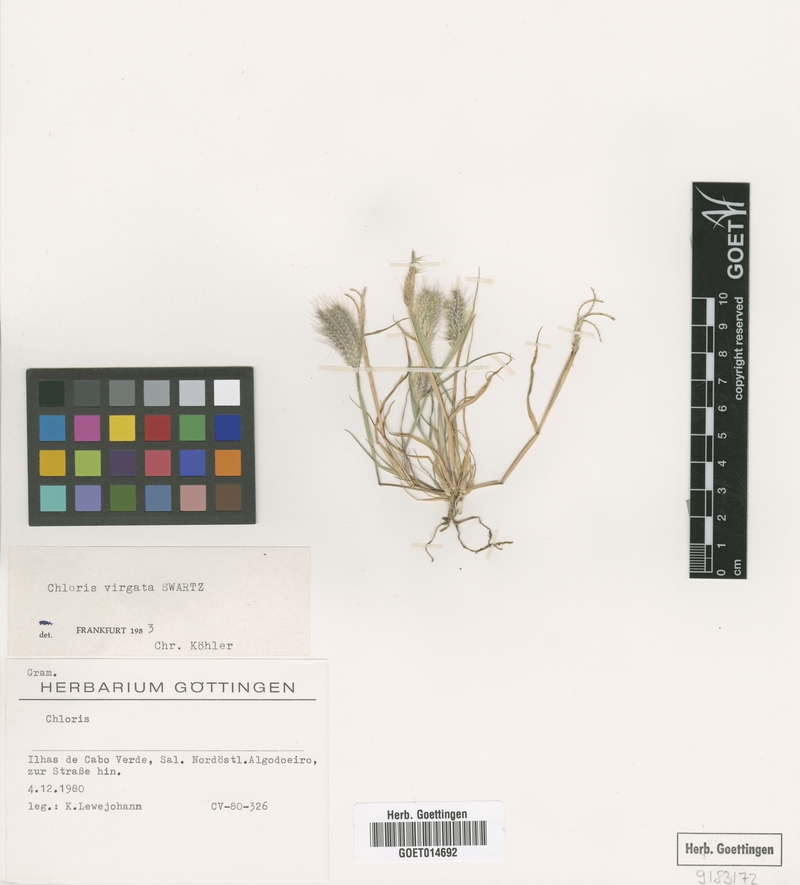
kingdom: Plantae
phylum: Tracheophyta
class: Liliopsida
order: Poales
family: Poaceae
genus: Chloris
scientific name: Chloris virgata
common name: Feathery rhodes-grass
